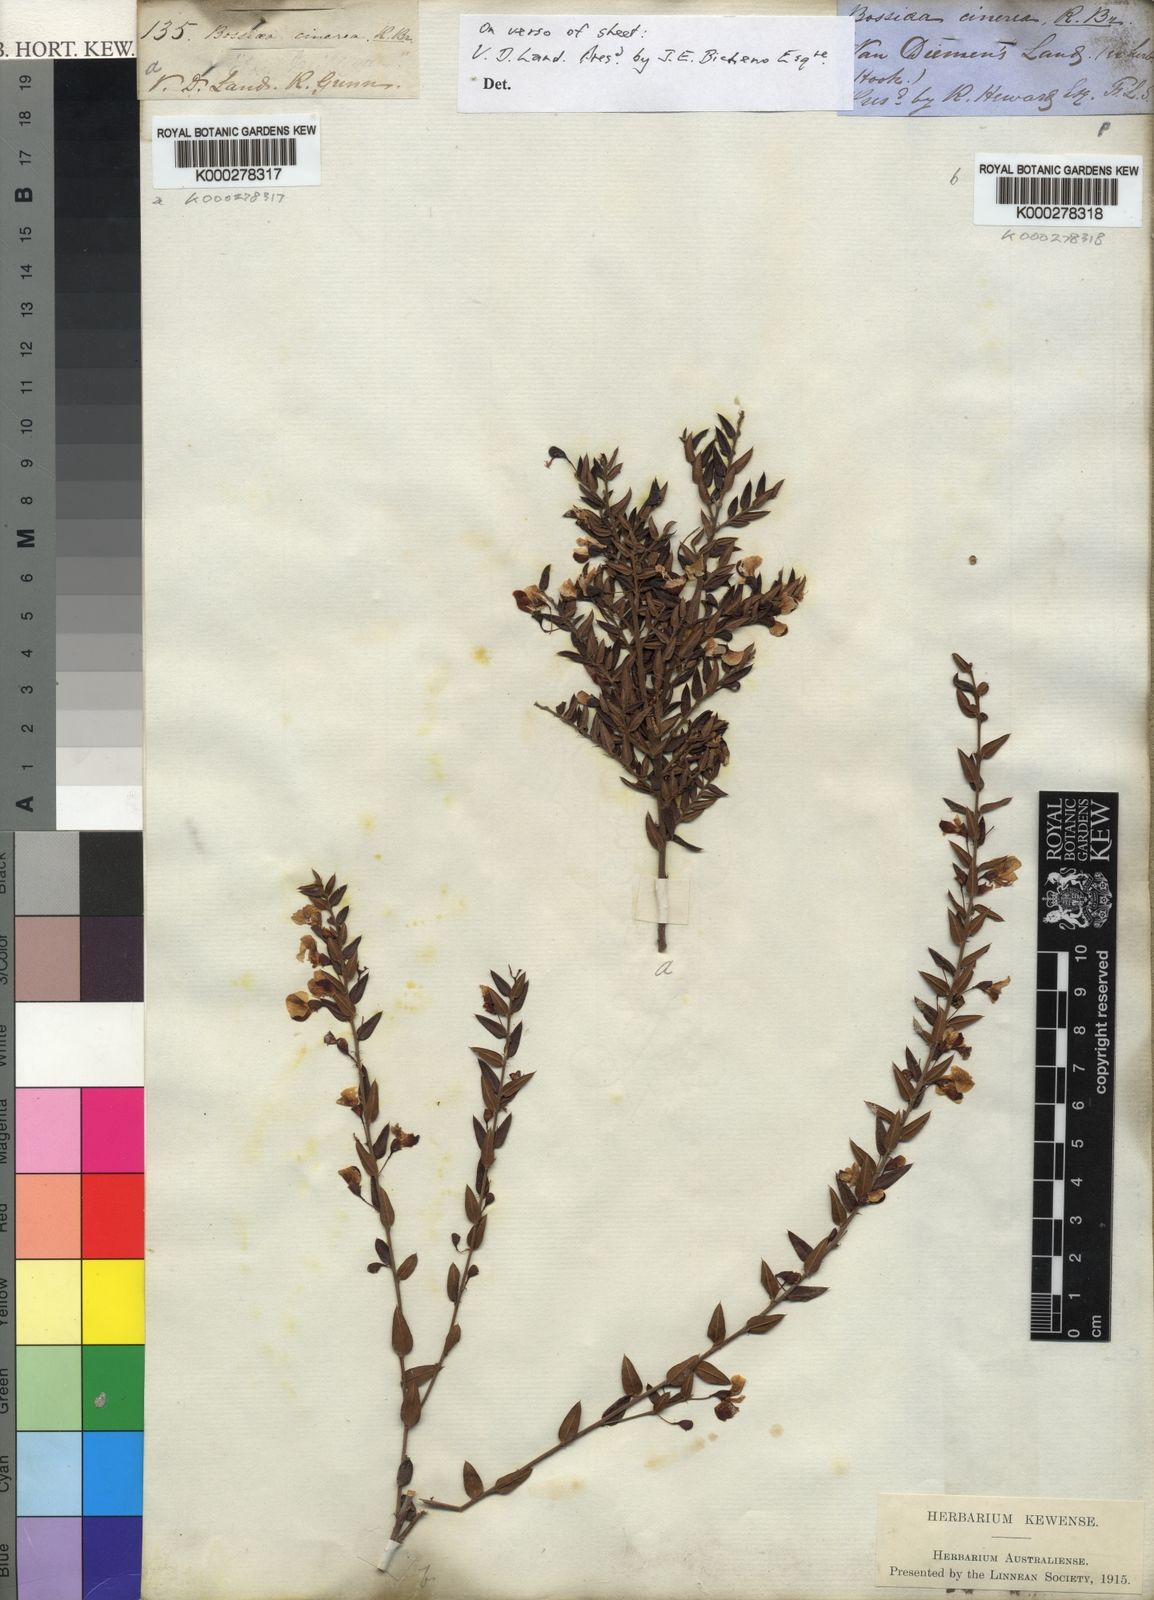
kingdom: Plantae
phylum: Tracheophyta
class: Magnoliopsida
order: Fabales
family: Fabaceae
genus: Bossiaea
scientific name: Bossiaea cinerea
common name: Showy bossiaea
